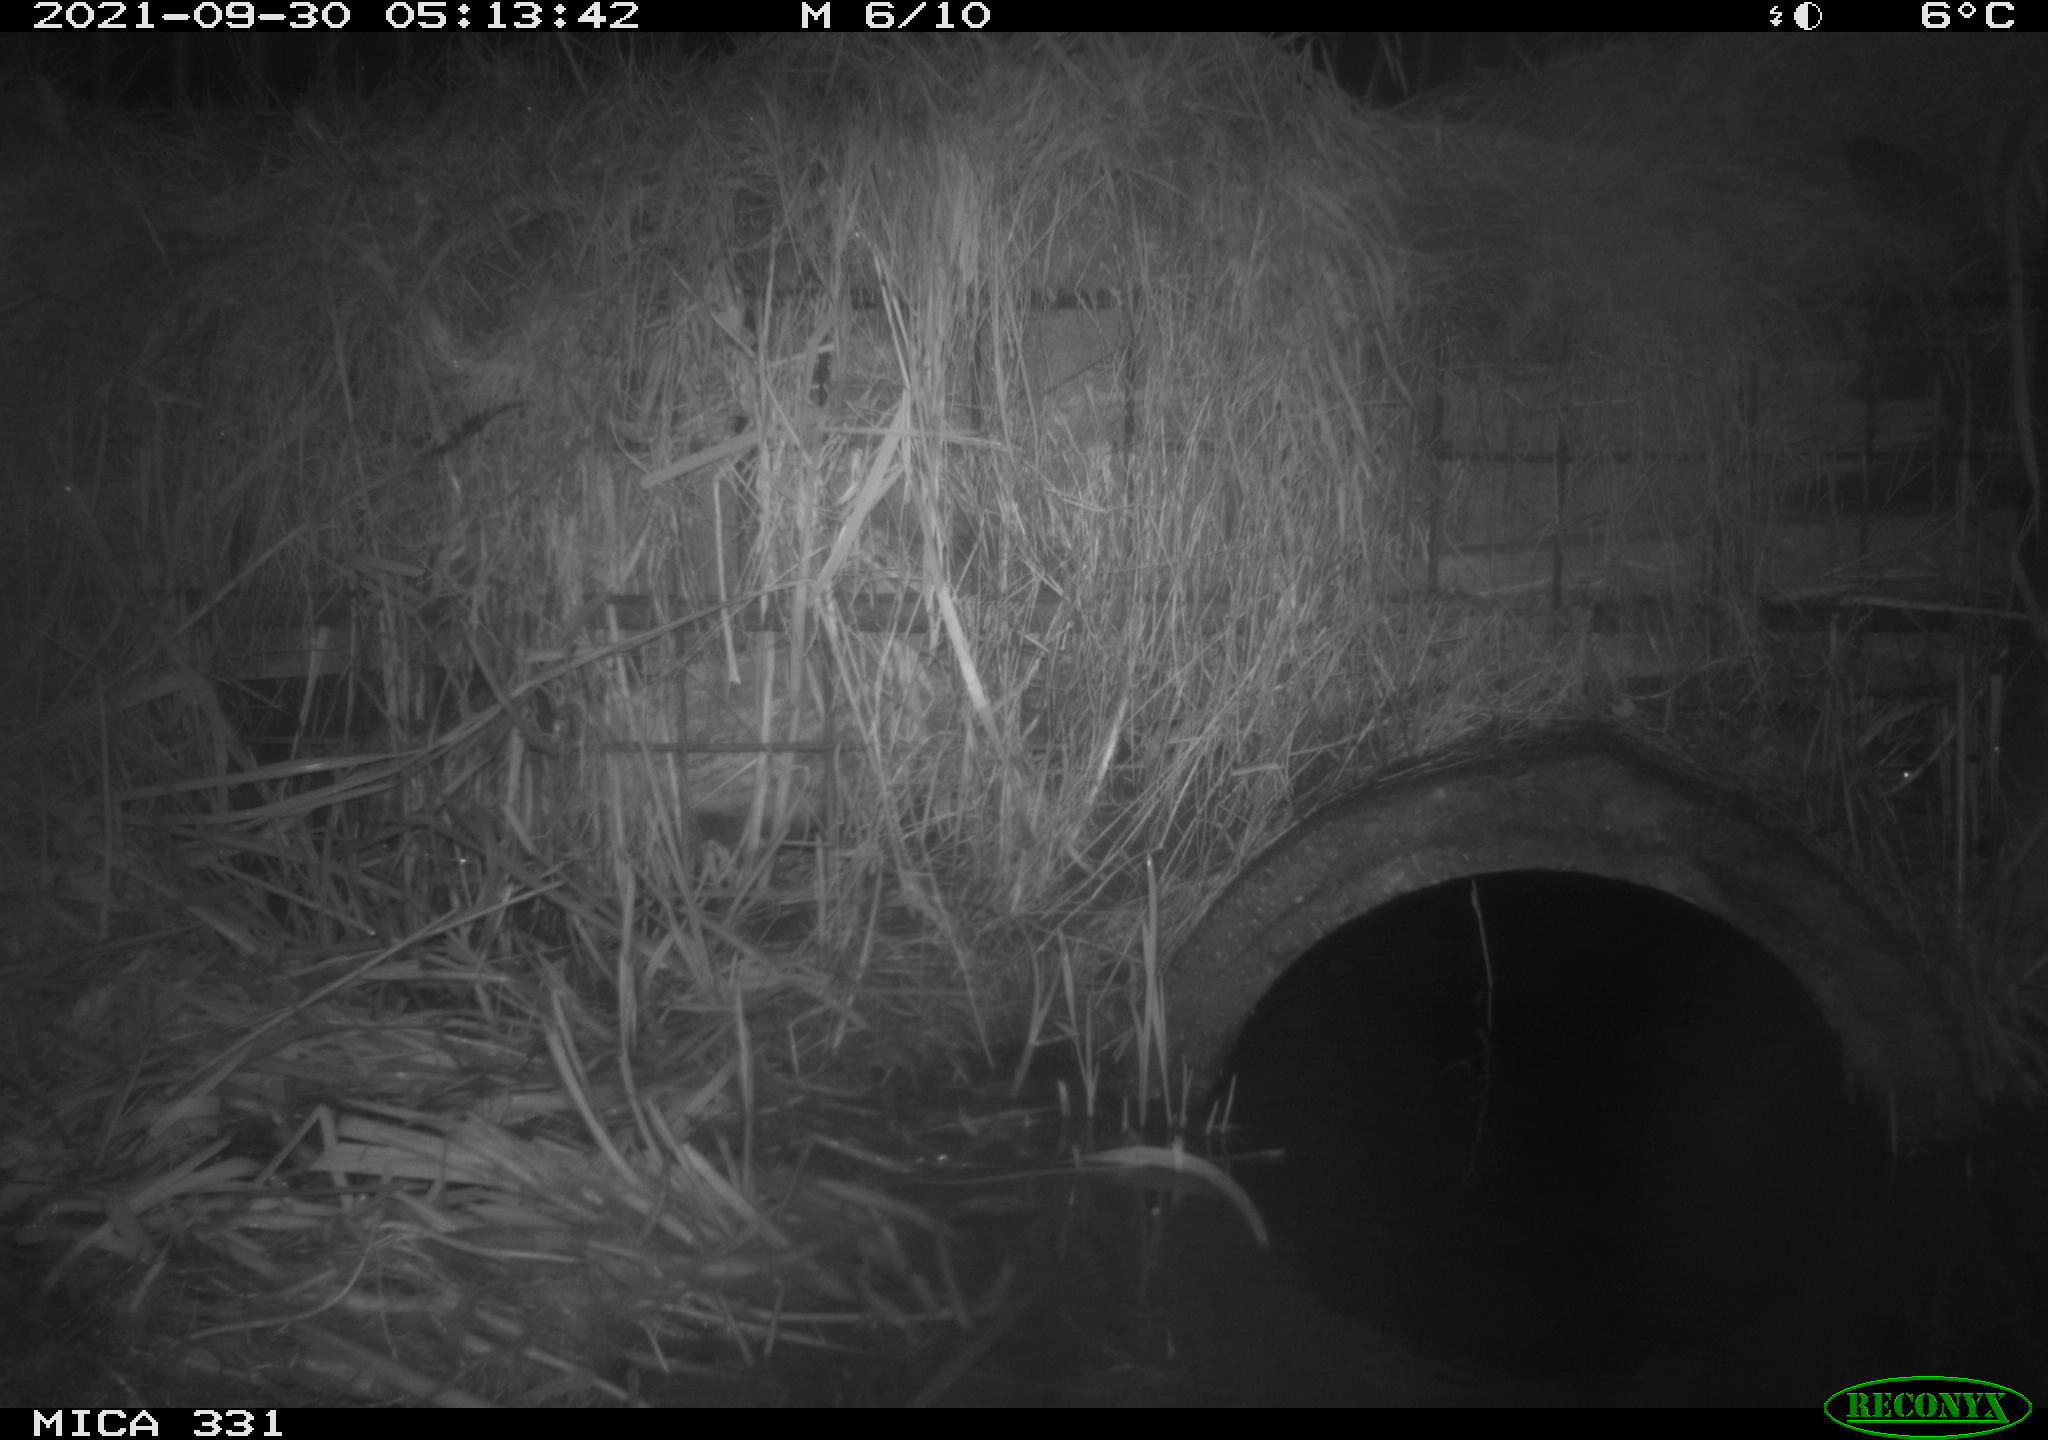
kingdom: Animalia
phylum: Chordata
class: Mammalia
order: Rodentia
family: Muridae
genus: Rattus
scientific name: Rattus norvegicus
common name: Brown rat
